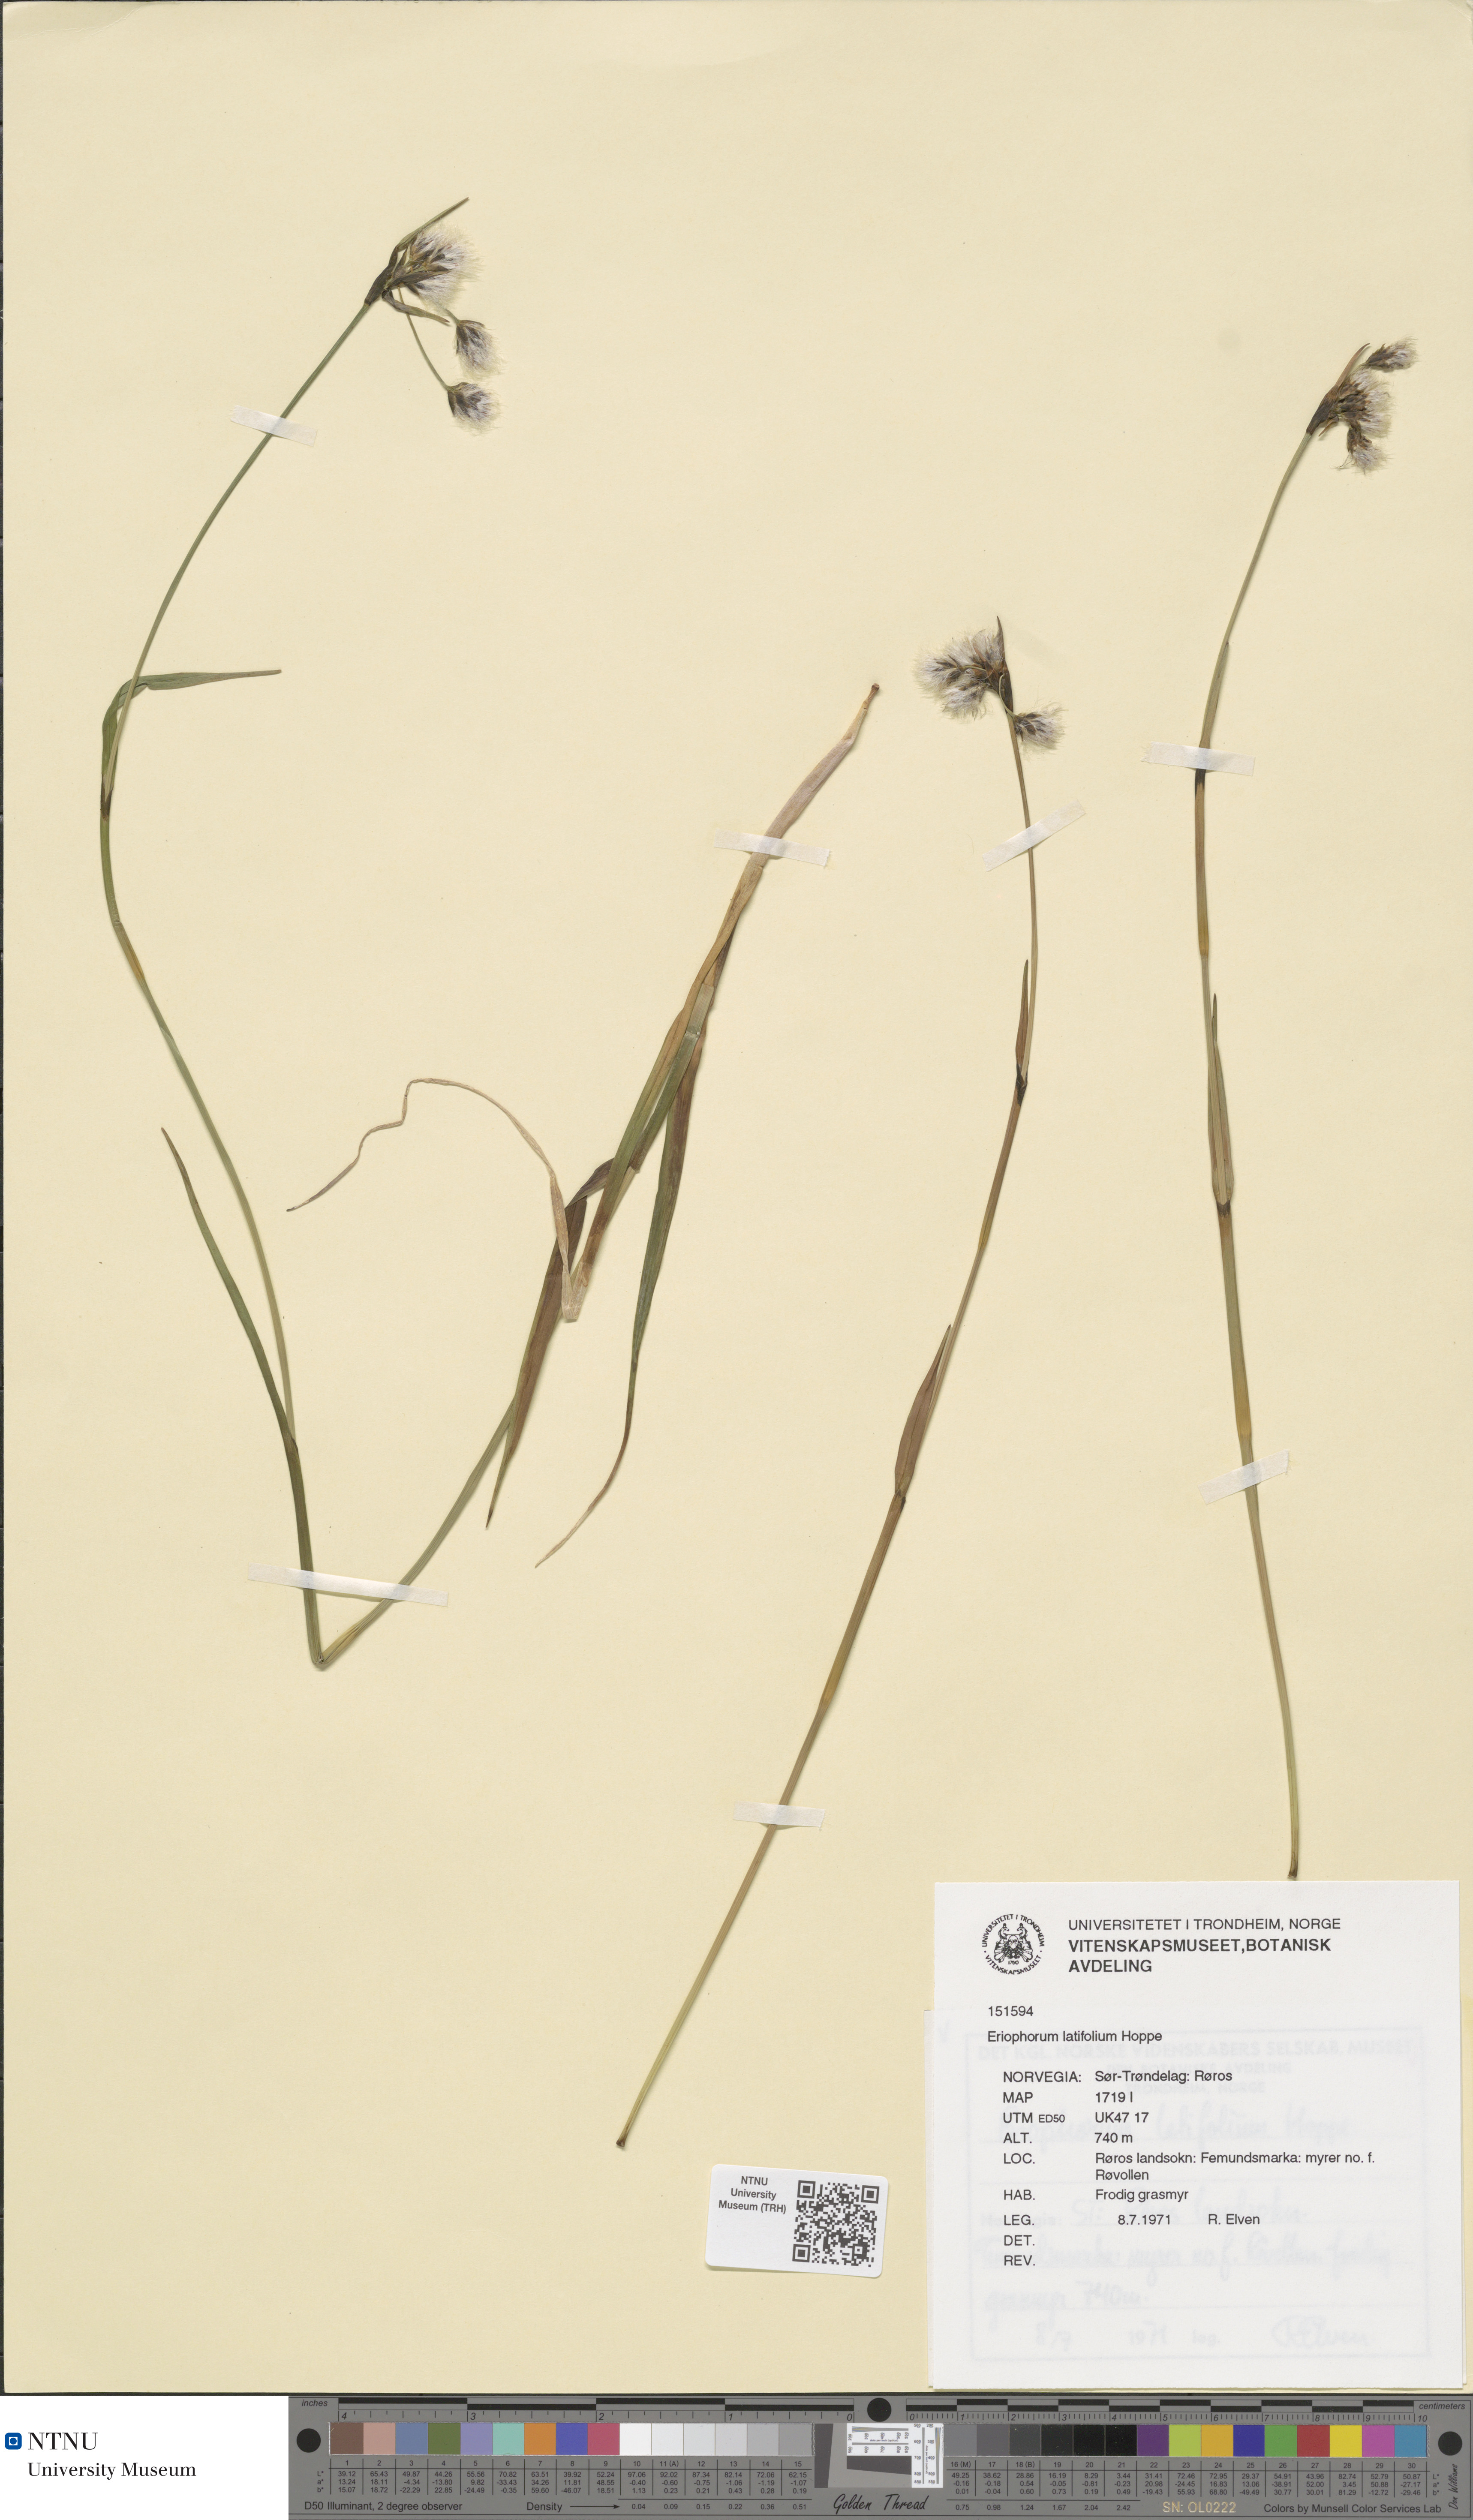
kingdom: Plantae
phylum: Tracheophyta
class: Liliopsida
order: Poales
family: Cyperaceae
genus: Eriophorum
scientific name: Eriophorum latifolium
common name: Broad-leaved cottongrass
